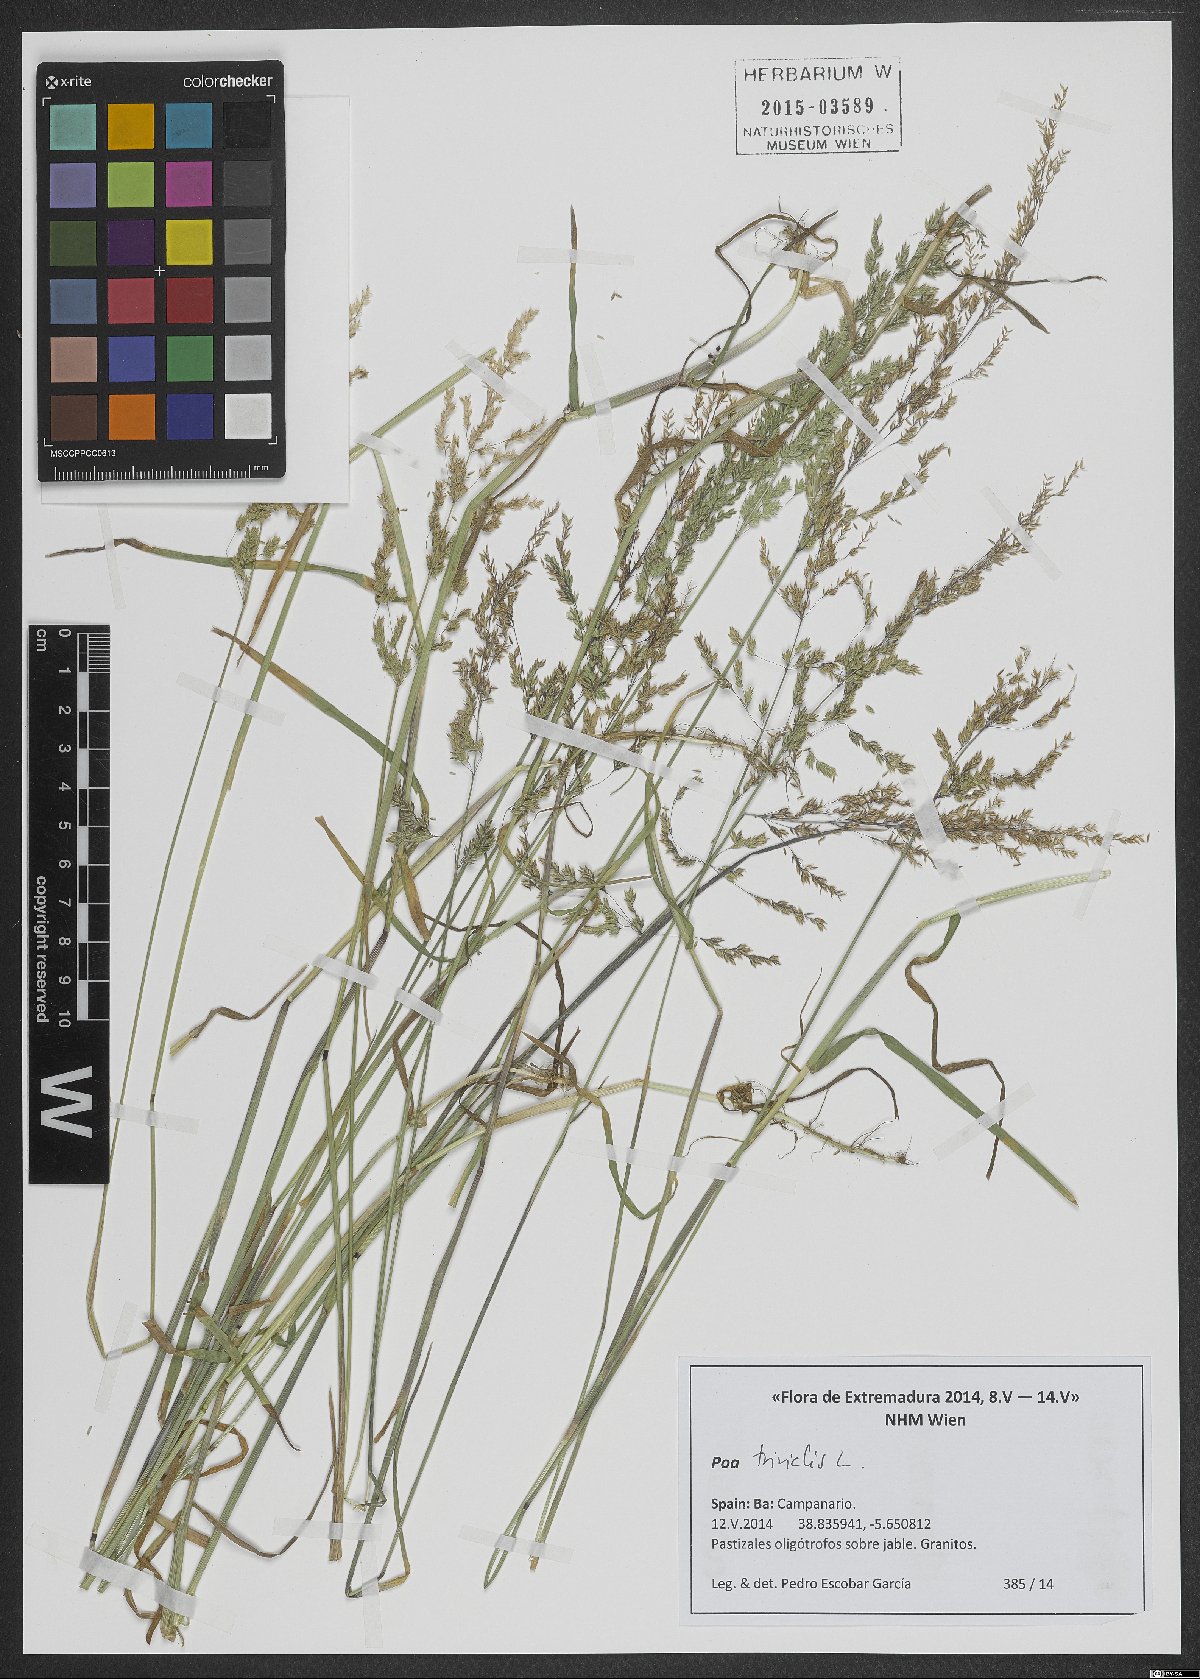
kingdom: Plantae
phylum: Tracheophyta
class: Liliopsida
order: Poales
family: Poaceae
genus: Poa
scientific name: Poa trivialis
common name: Rough bluegrass
